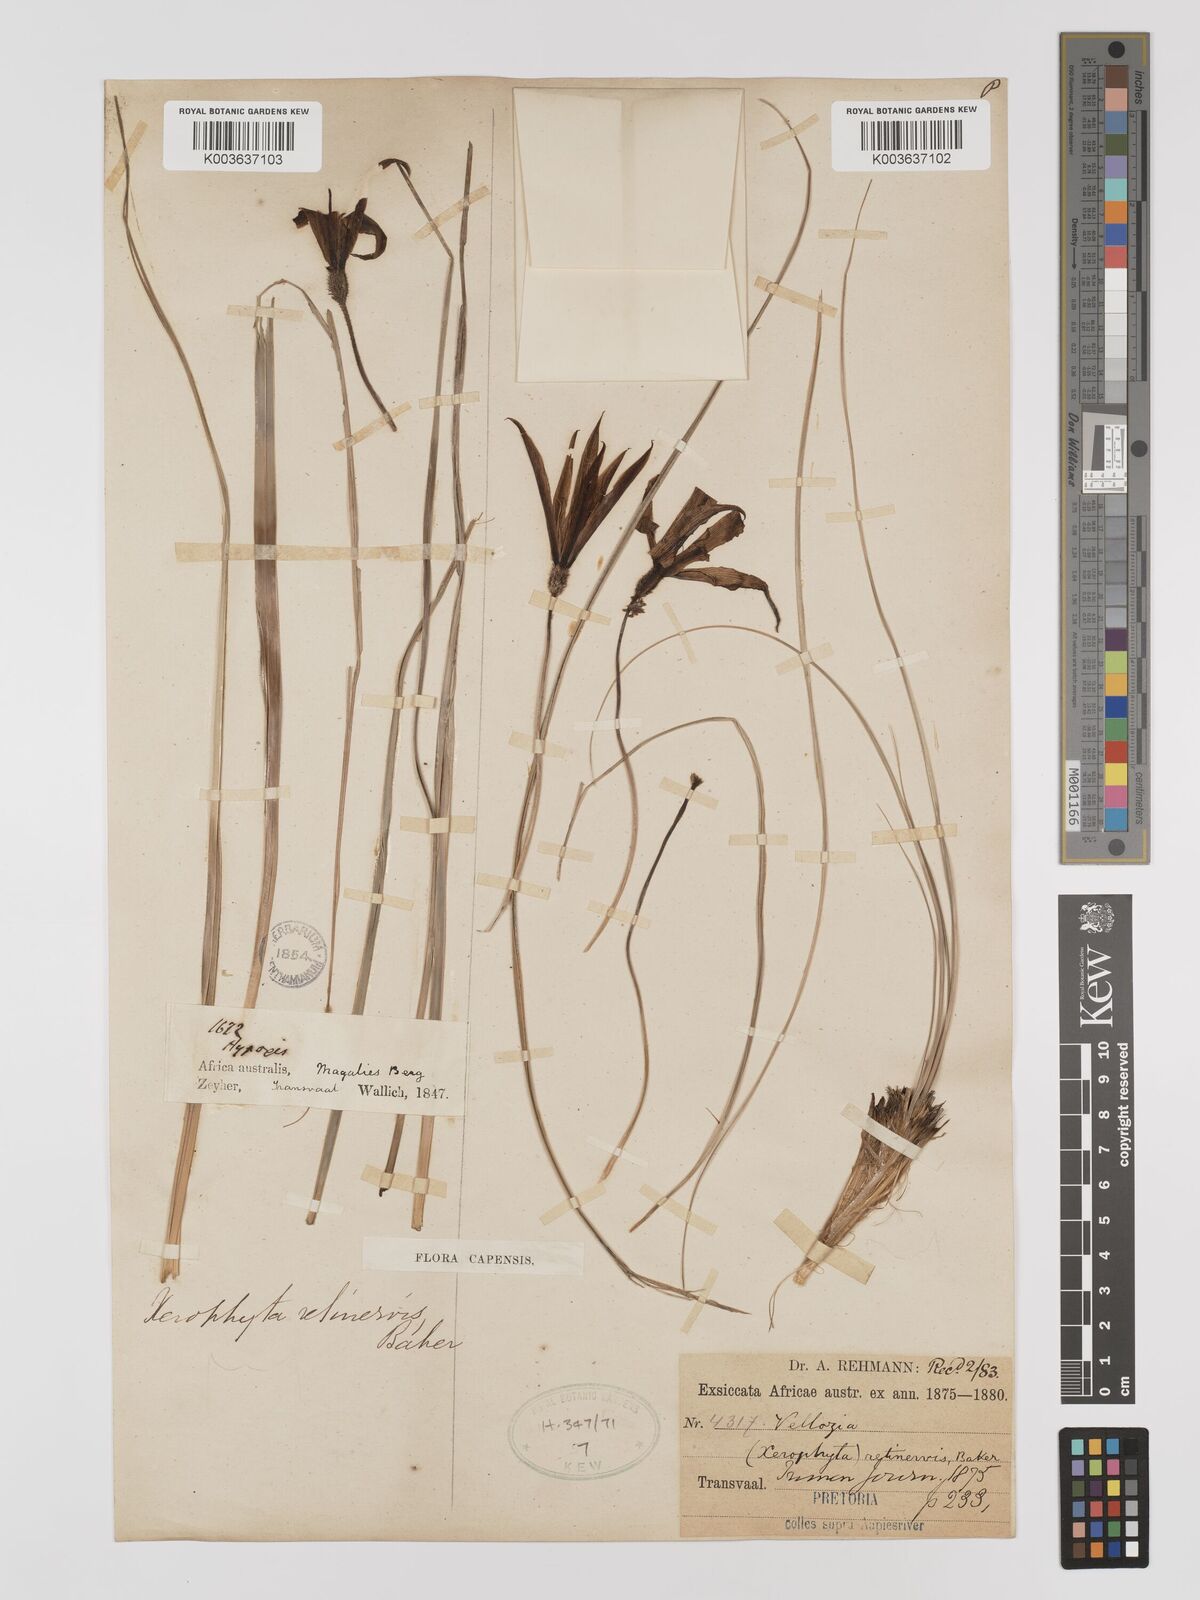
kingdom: Plantae
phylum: Tracheophyta
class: Liliopsida
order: Pandanales
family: Velloziaceae
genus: Xerophyta
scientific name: Xerophyta retinervis
